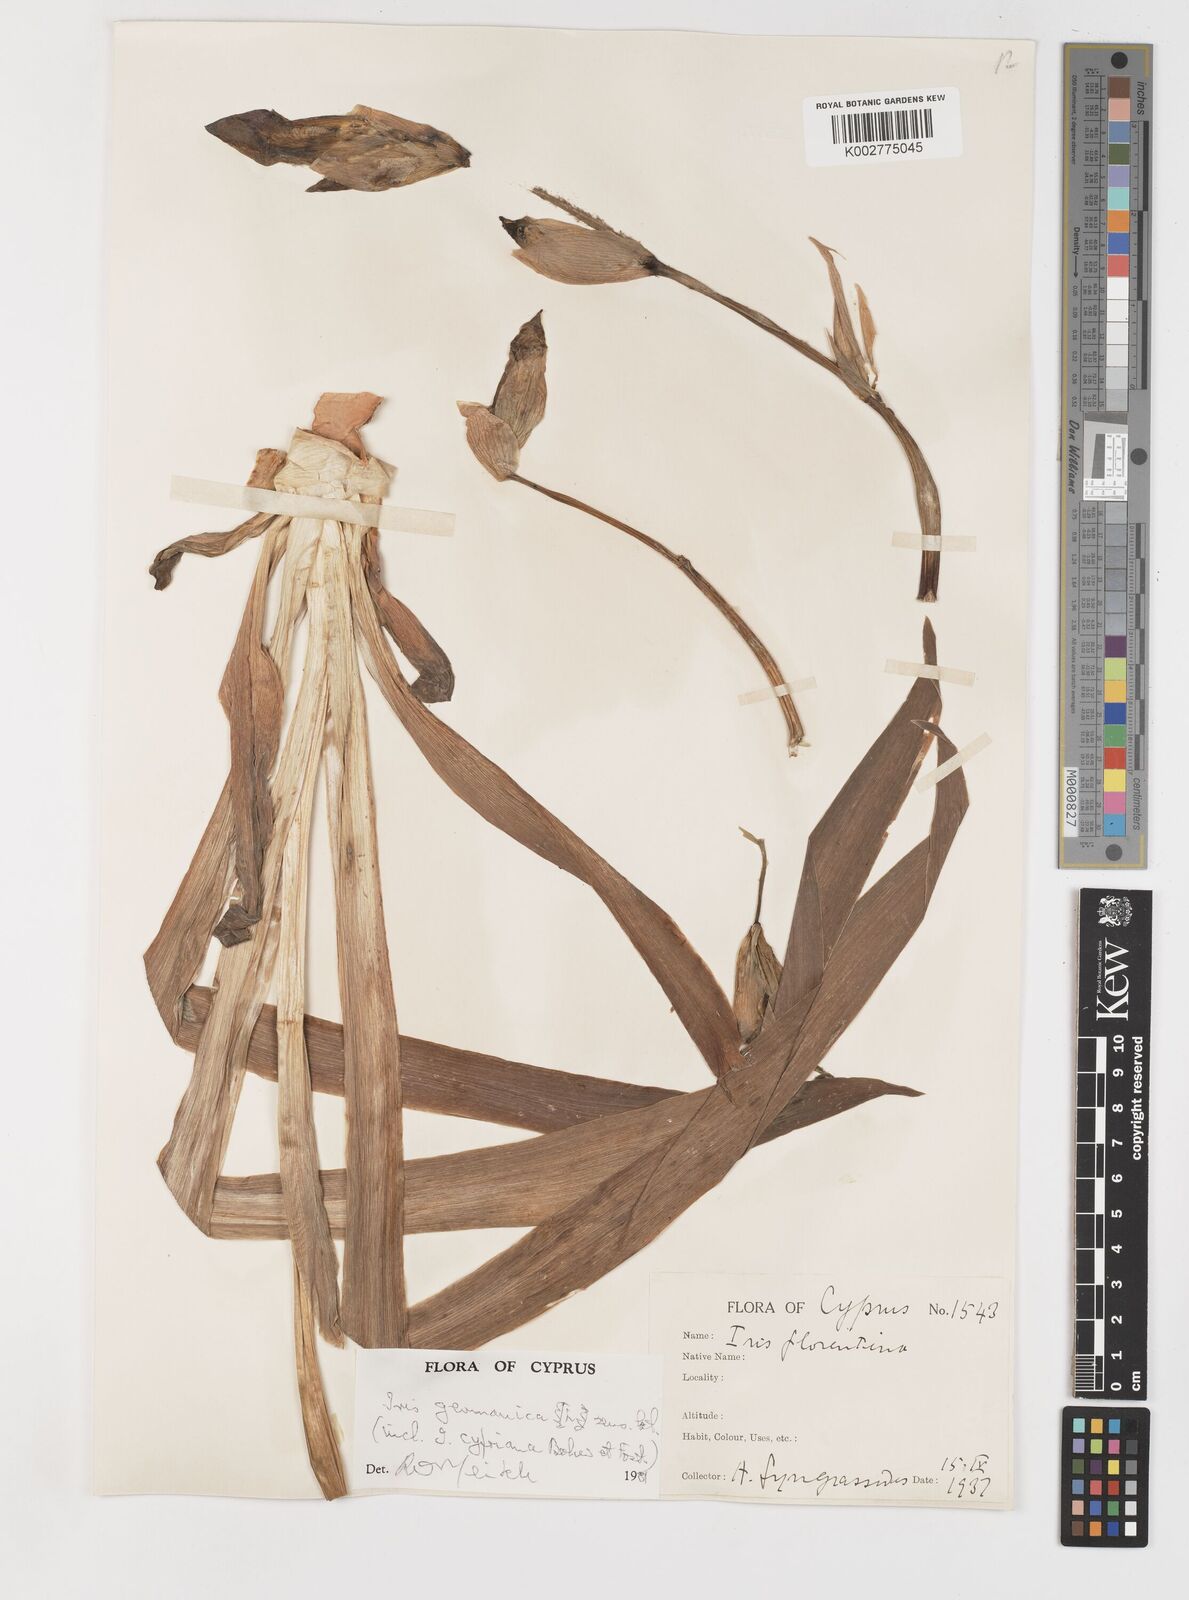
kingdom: Plantae
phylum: Tracheophyta
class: Liliopsida
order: Asparagales
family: Iridaceae
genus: Iris
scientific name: Iris germanica
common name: German iris
